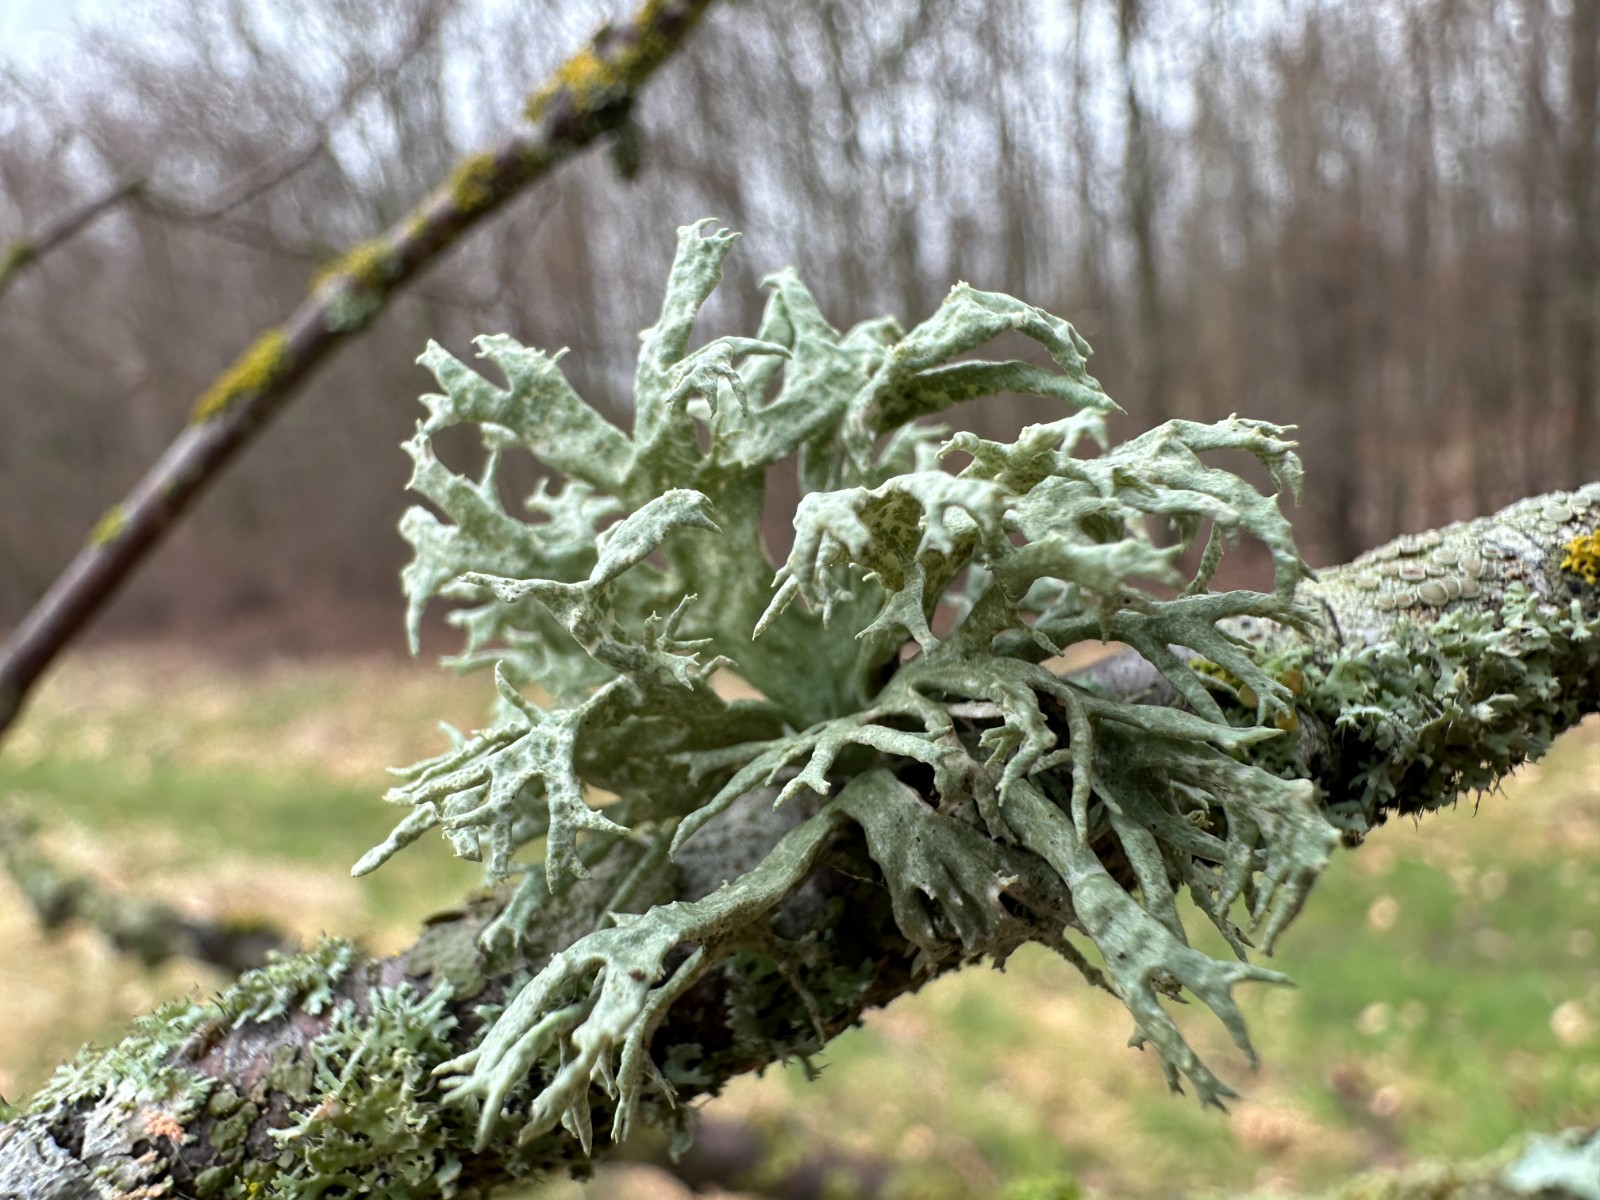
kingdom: Fungi
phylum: Ascomycota
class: Lecanoromycetes
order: Lecanorales
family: Ramalinaceae
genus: Ramalina
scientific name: Ramalina fastigiata
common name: tue-grenlav
